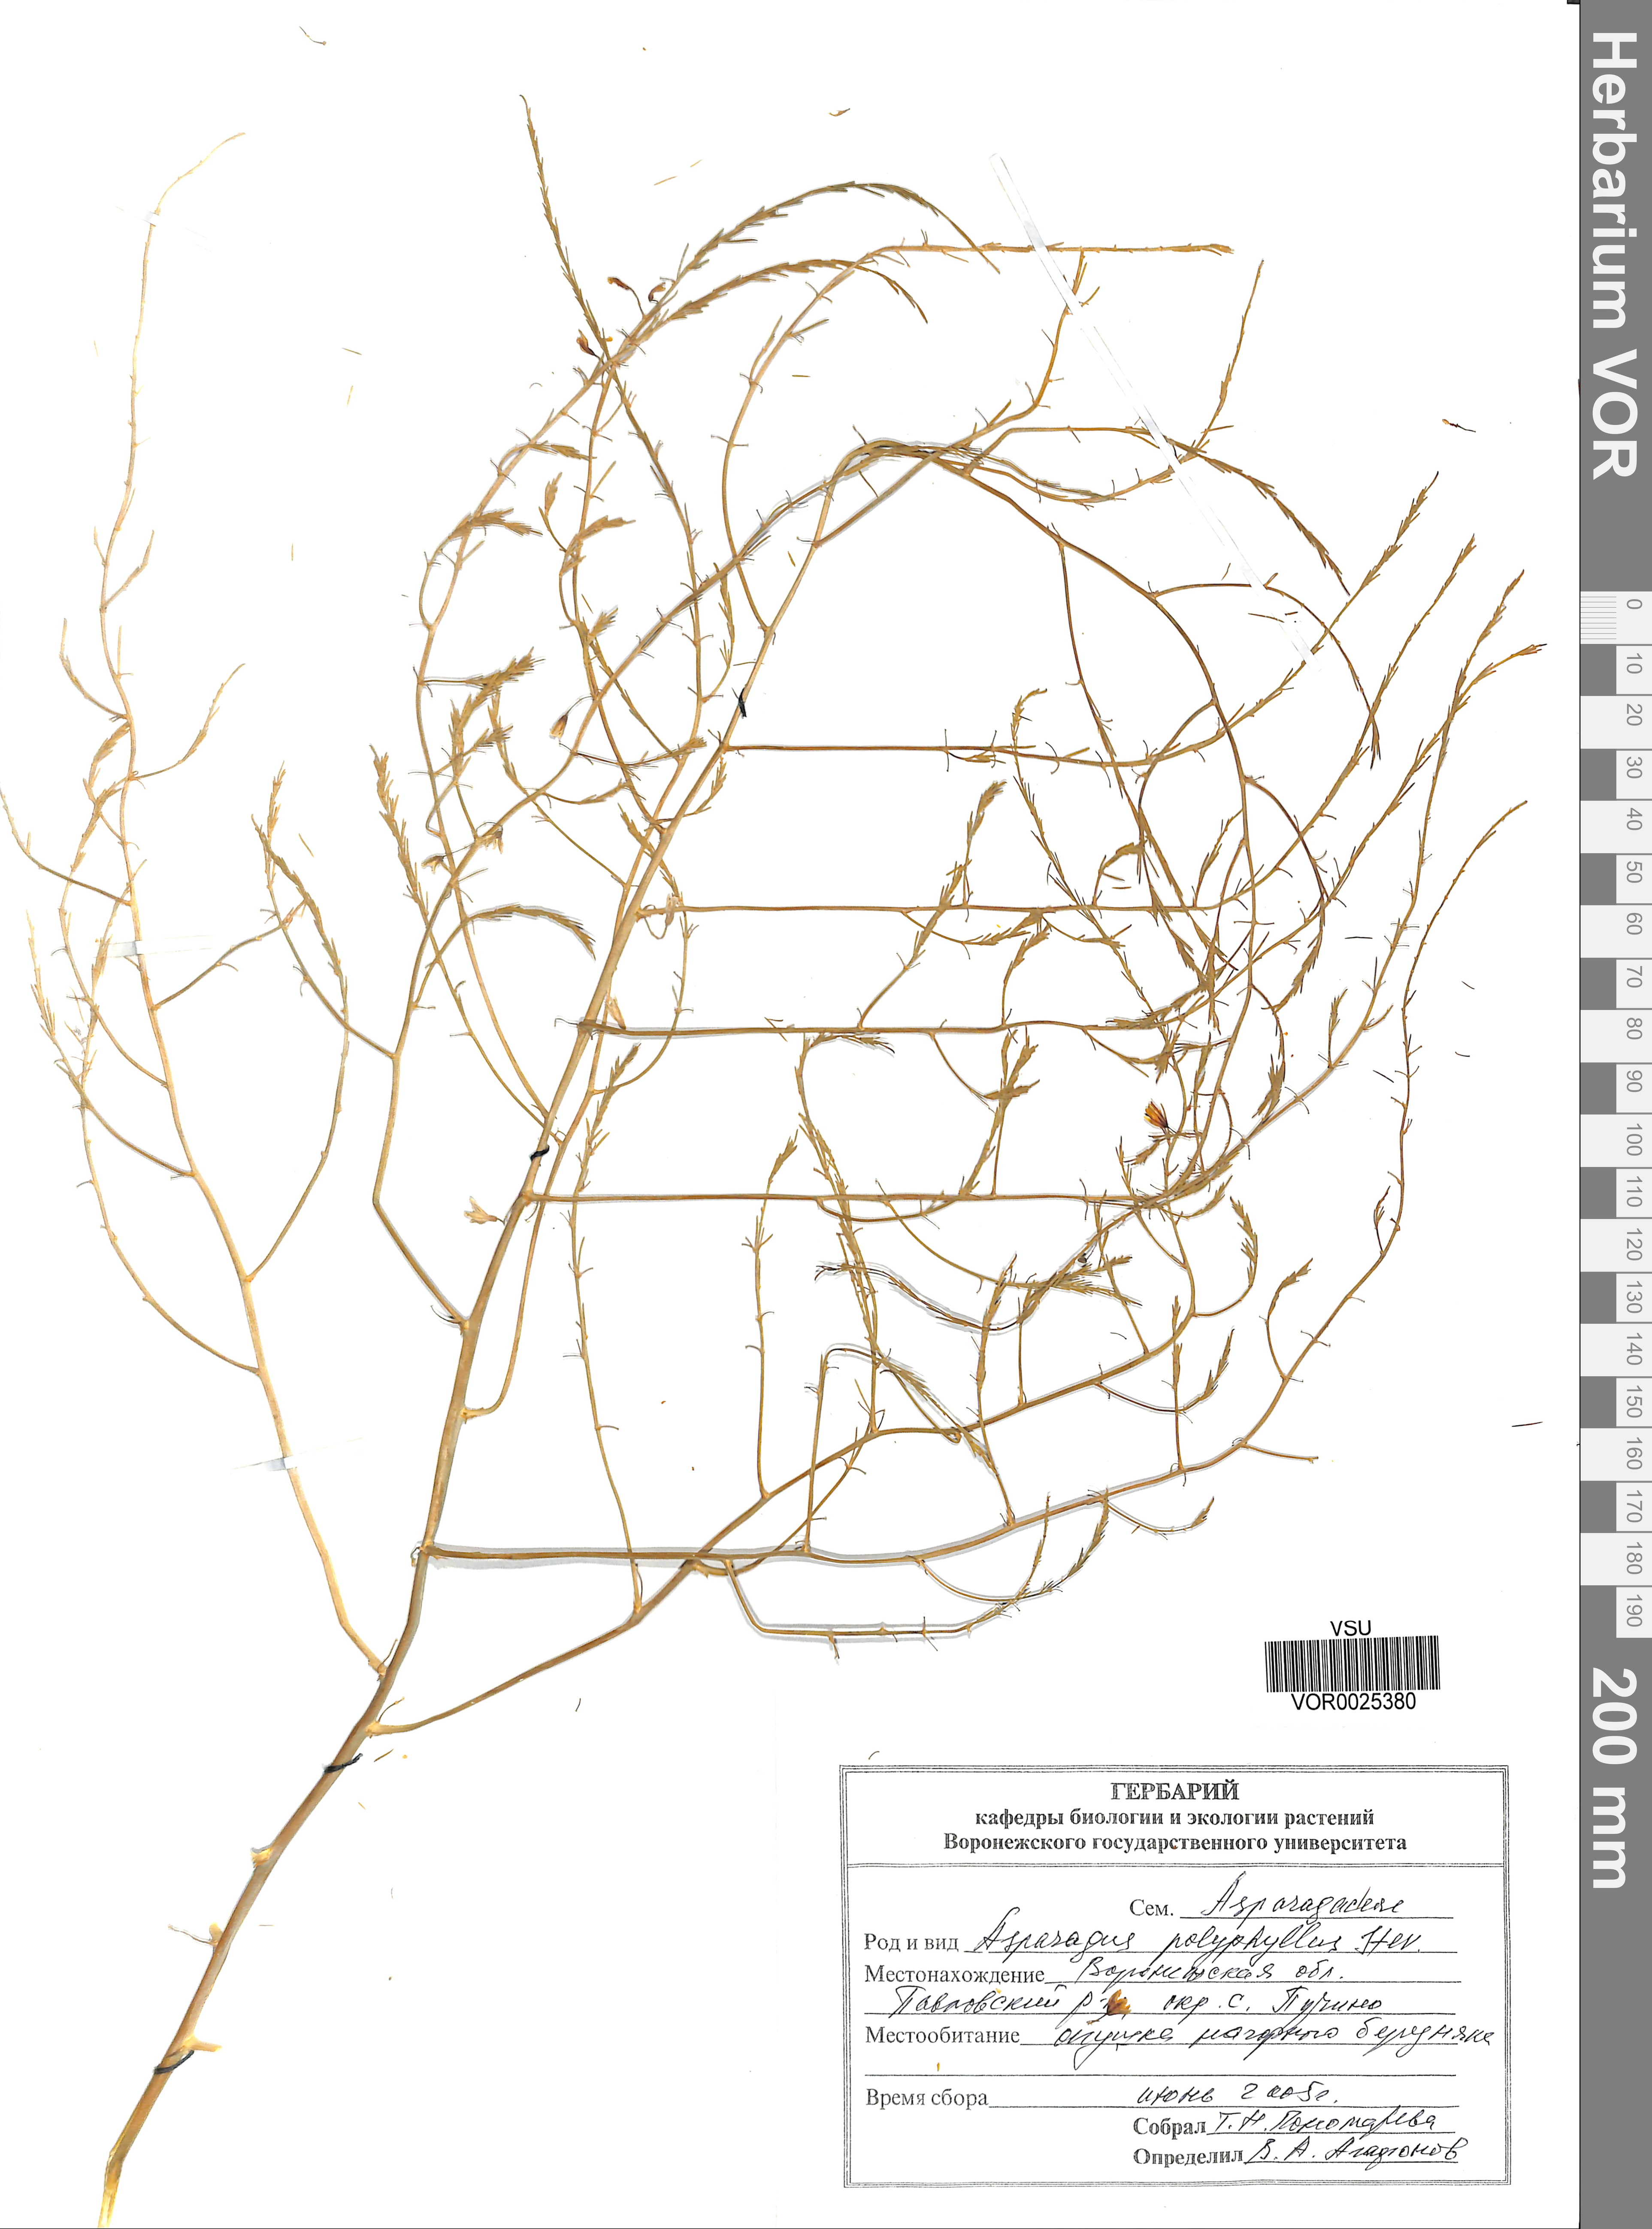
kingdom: Plantae
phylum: Tracheophyta
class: Liliopsida
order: Asparagales
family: Asparagaceae
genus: Asparagus
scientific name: Asparagus officinalis
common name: Garden asparagus
